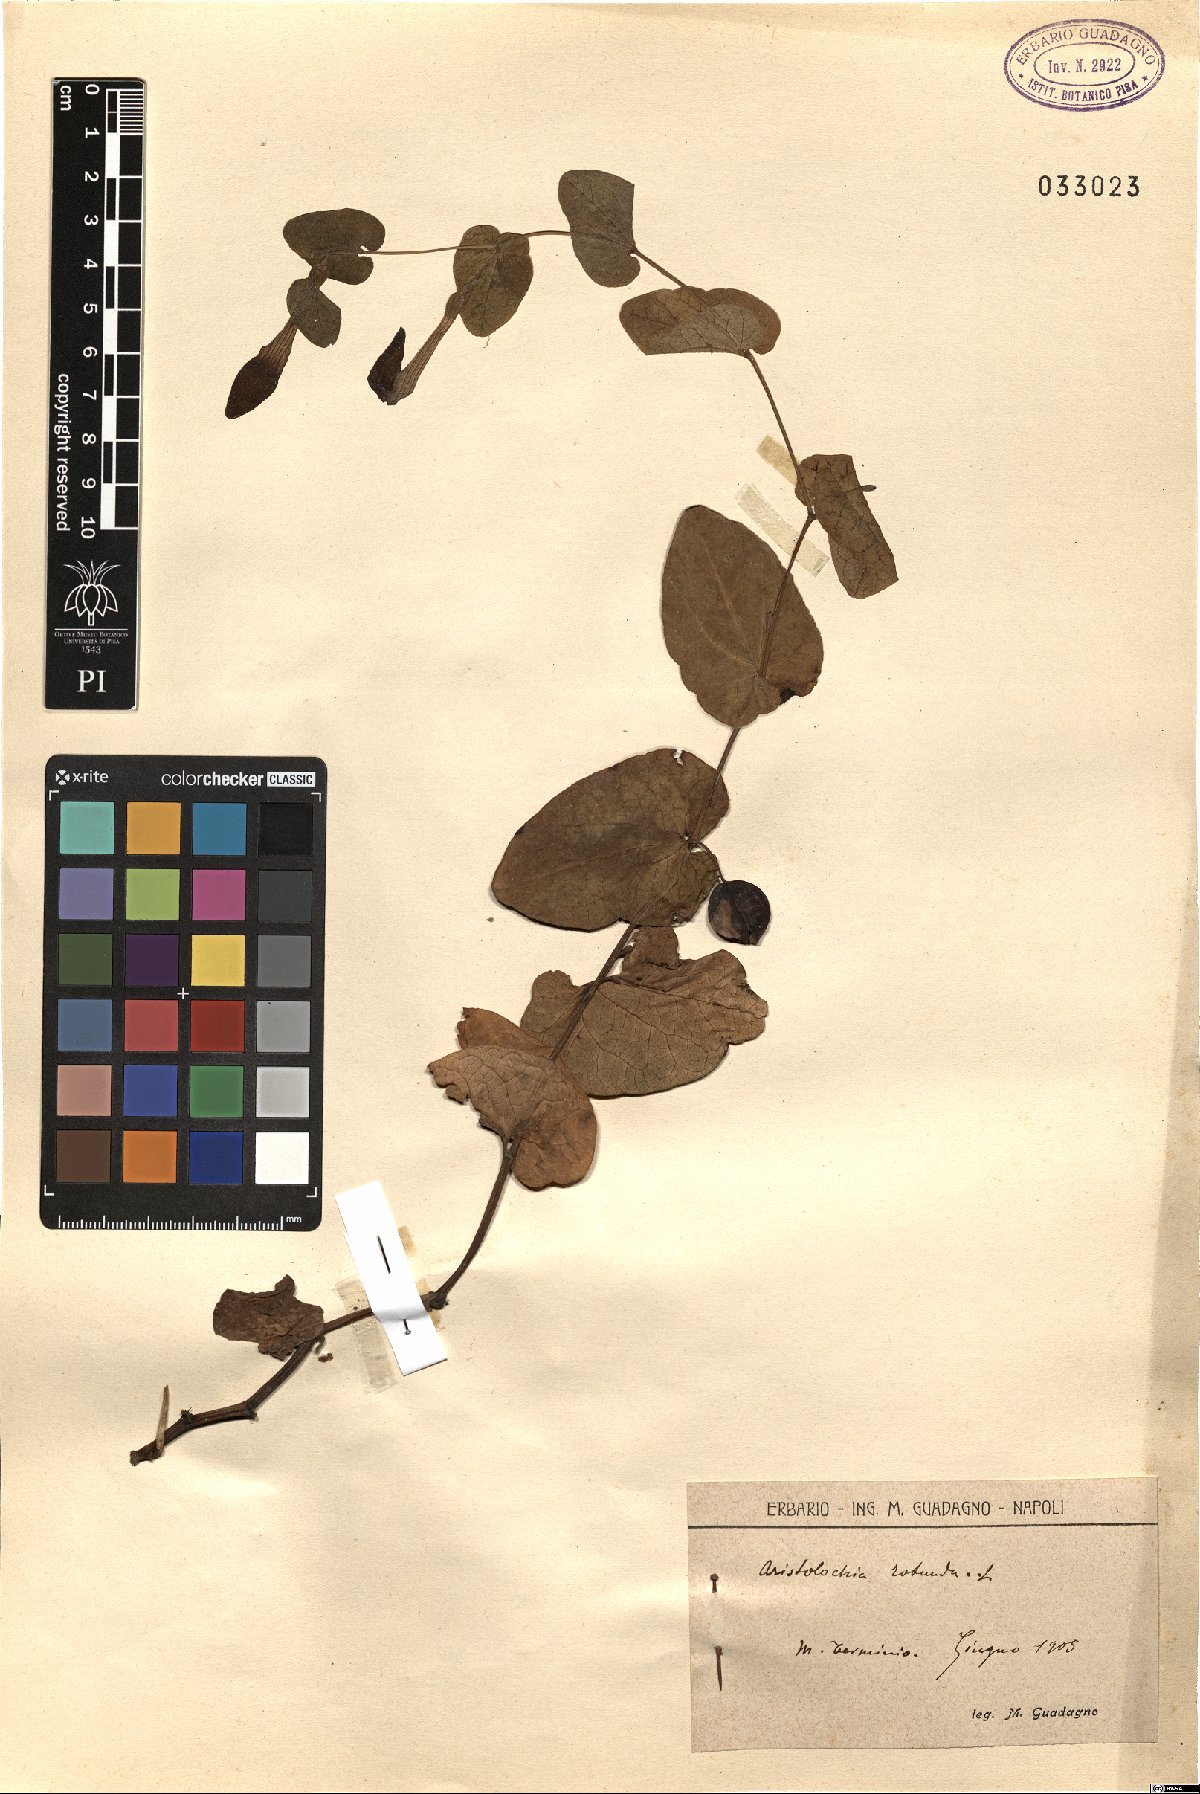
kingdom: Plantae
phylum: Tracheophyta
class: Magnoliopsida
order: Piperales
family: Aristolochiaceae
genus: Aristolochia
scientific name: Aristolochia rotunda
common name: Smearwort
